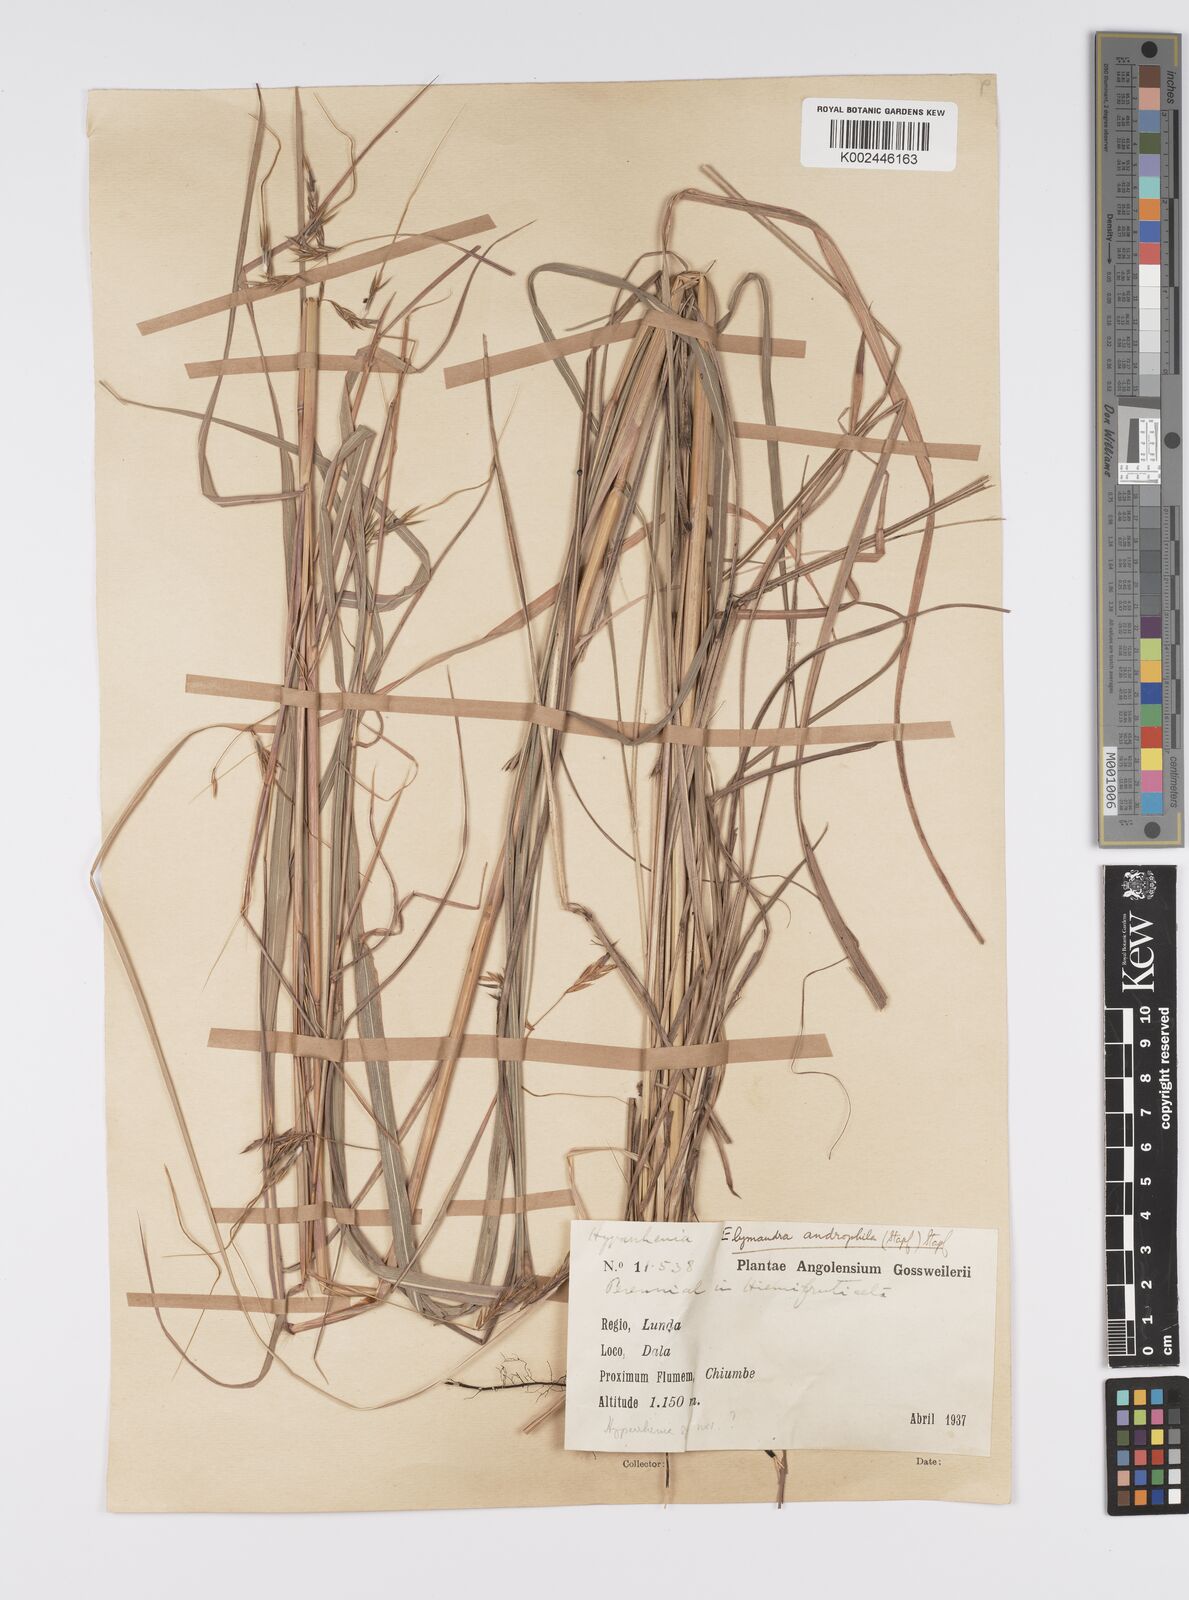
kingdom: Plantae
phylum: Tracheophyta
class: Liliopsida
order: Poales
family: Poaceae
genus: Elymandra
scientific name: Elymandra androphila
